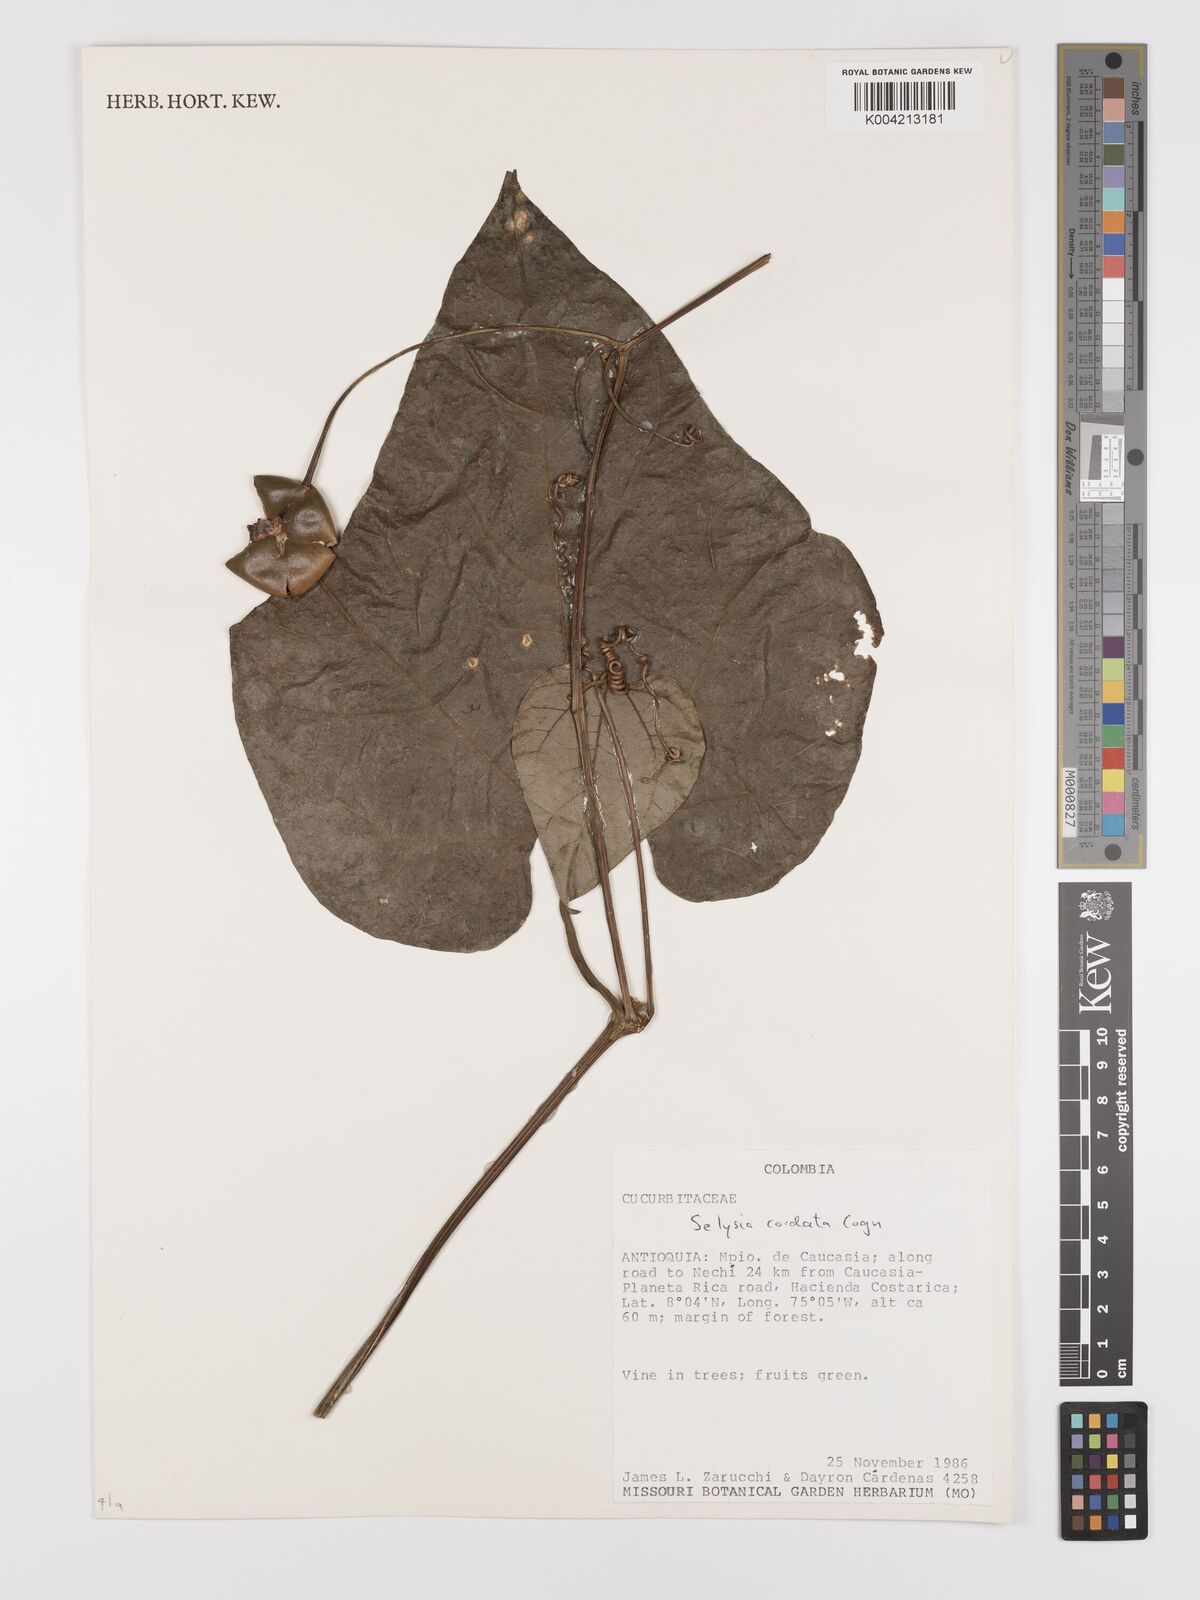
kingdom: Plantae
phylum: Tracheophyta
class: Magnoliopsida
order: Cucurbitales
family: Cucurbitaceae
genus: Cayaponia
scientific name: Cayaponia cordata
